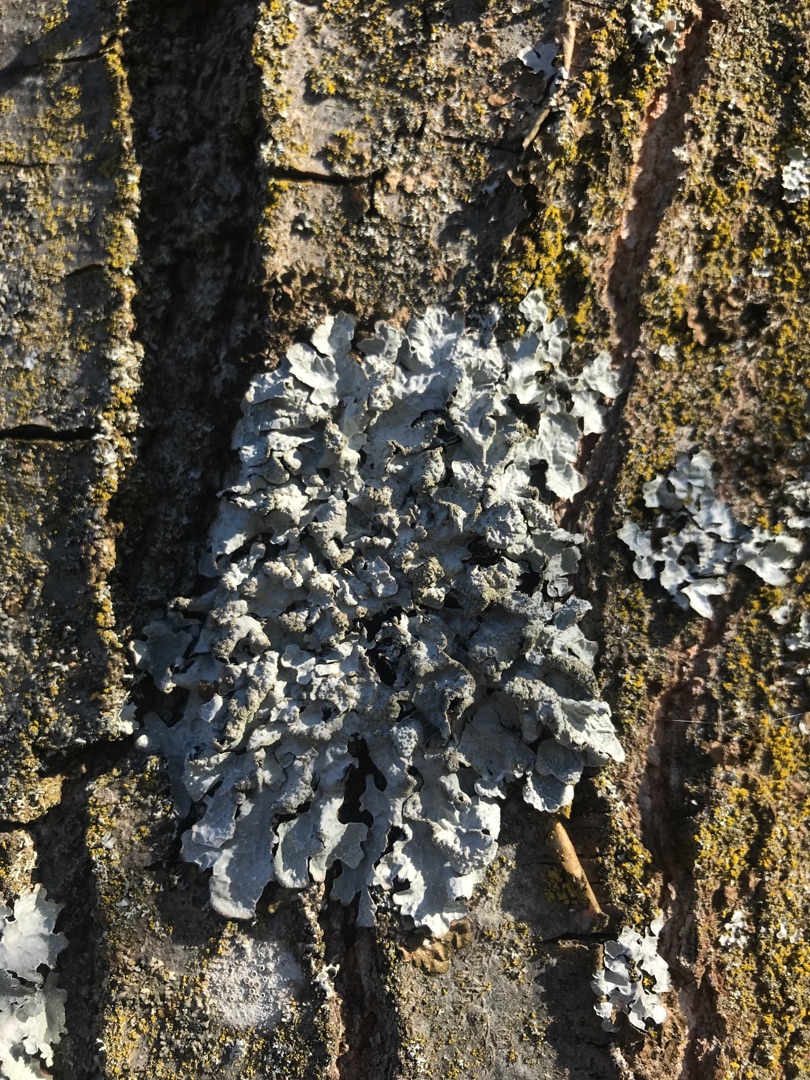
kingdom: Fungi
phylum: Ascomycota
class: Lecanoromycetes
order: Lecanorales
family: Parmeliaceae
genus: Parmelia
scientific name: Parmelia sulcata
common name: Rynket skållav
